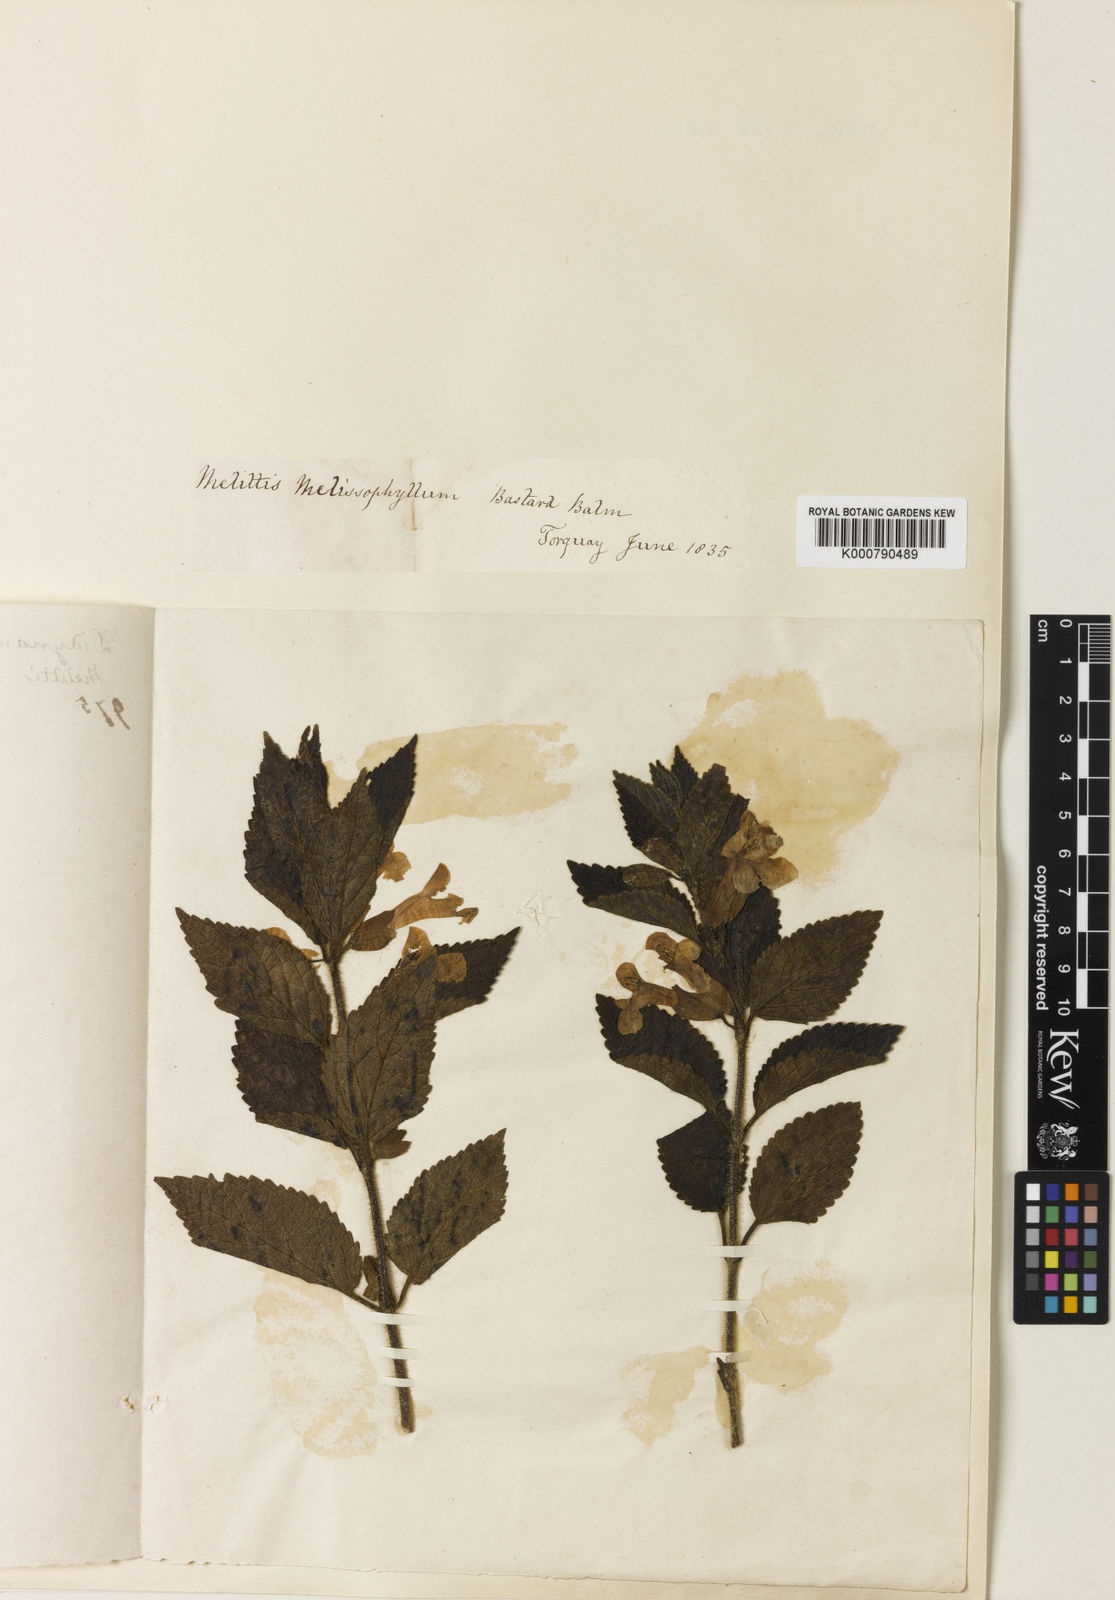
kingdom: Plantae
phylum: Tracheophyta
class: Magnoliopsida
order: Lamiales
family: Lamiaceae
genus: Melittis
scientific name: Melittis melissophyllum
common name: Bastard balm
